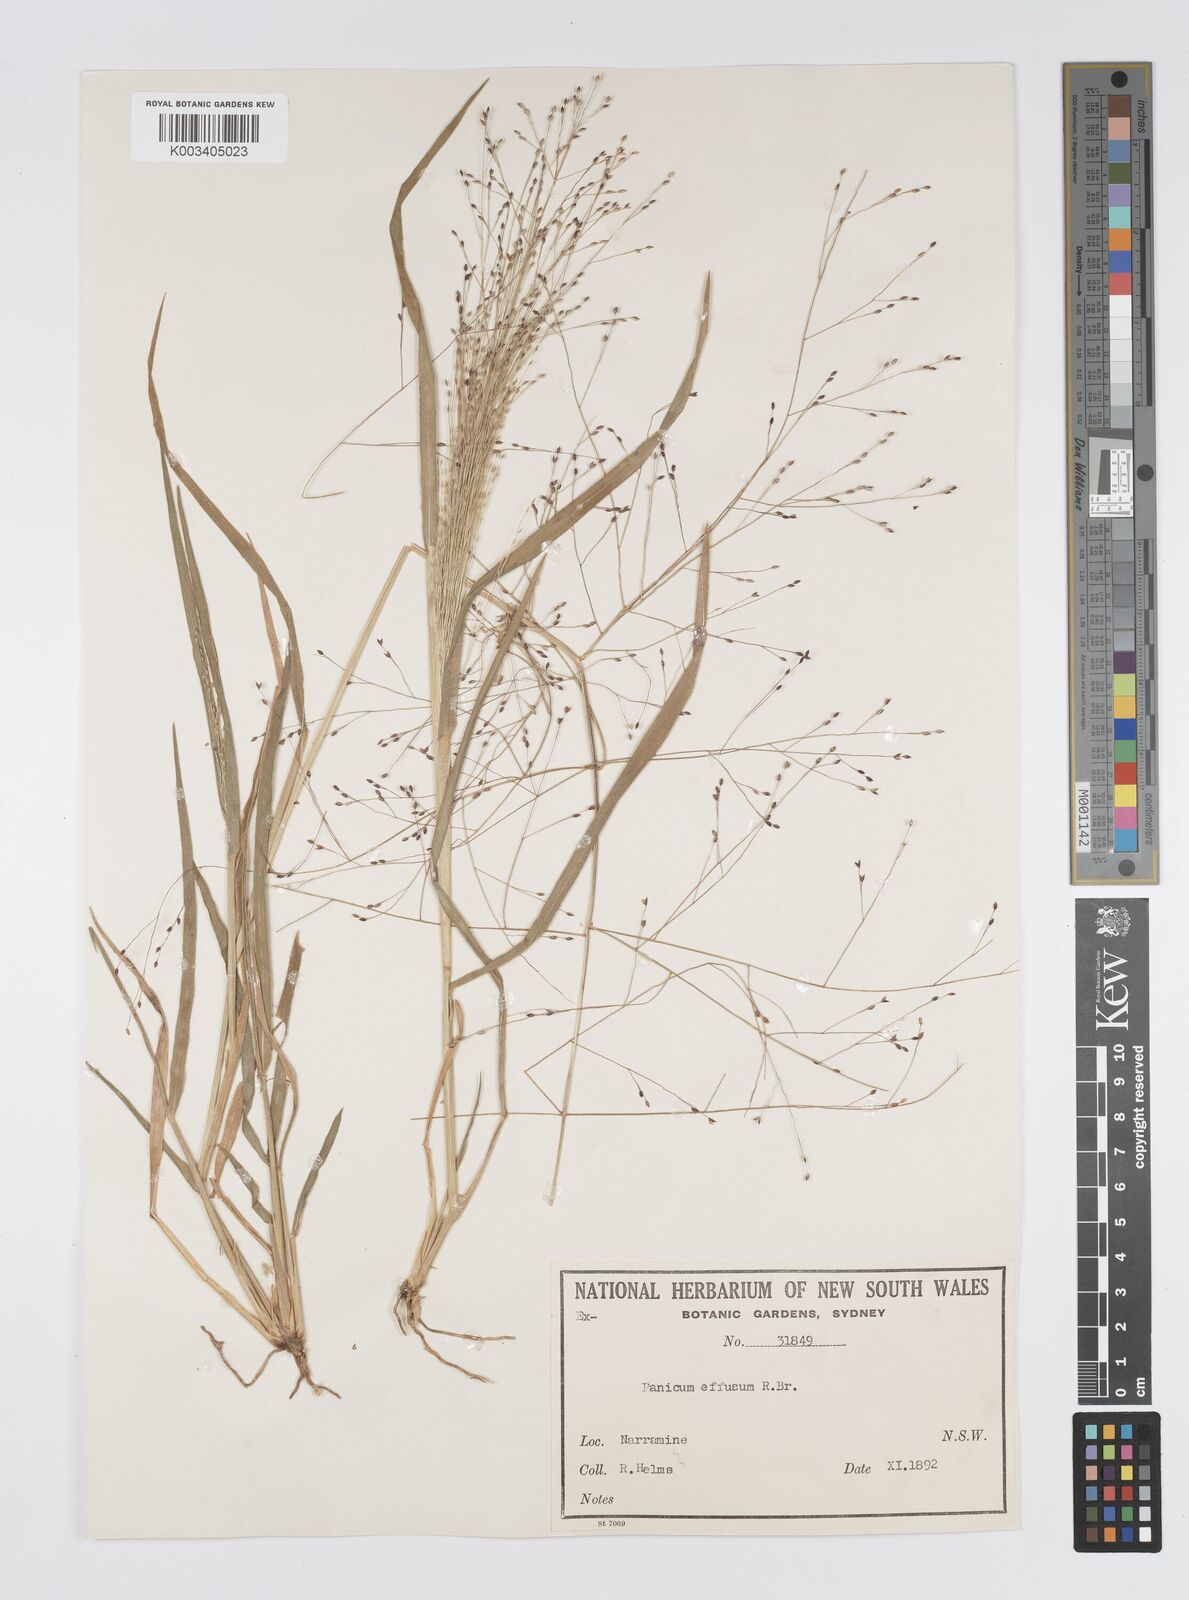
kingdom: Plantae
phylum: Tracheophyta
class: Liliopsida
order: Poales
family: Poaceae
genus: Panicum
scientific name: Panicum effusum
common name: Hairy panic grass
